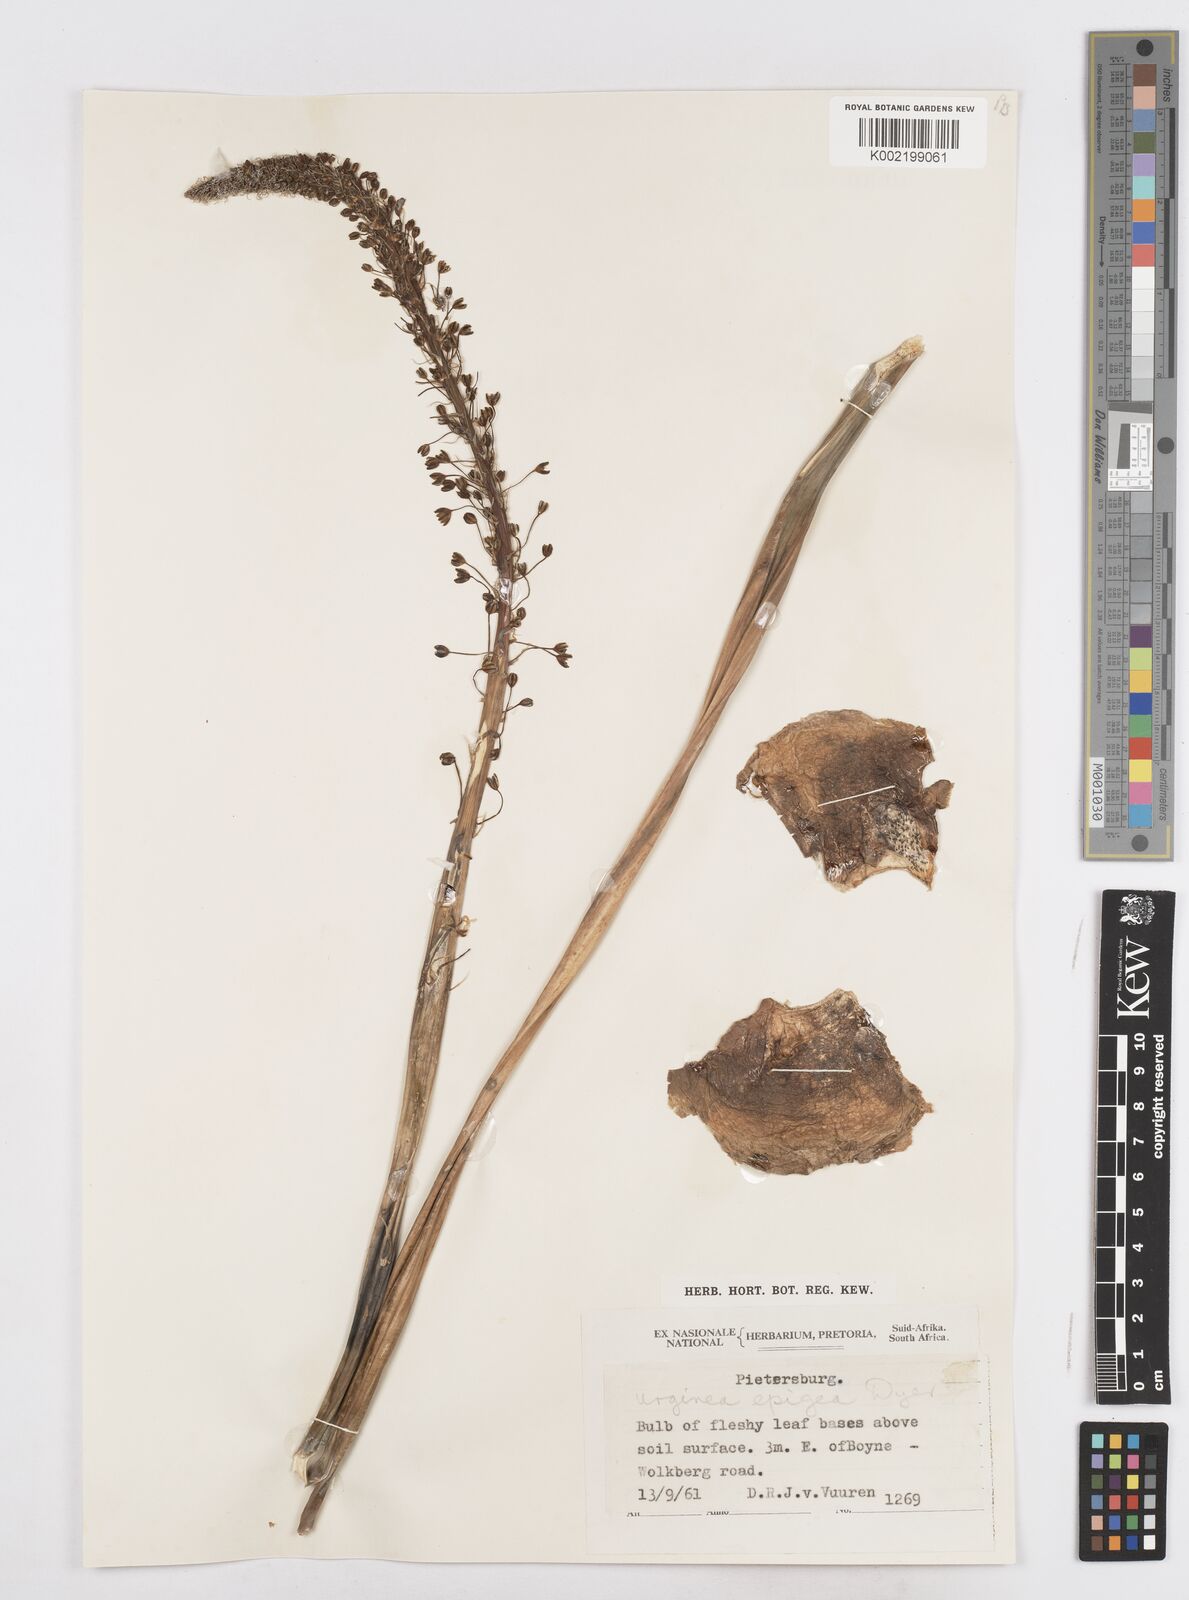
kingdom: Plantae
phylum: Tracheophyta
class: Liliopsida
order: Asparagales
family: Asparagaceae
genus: Drimia
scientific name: Drimia
